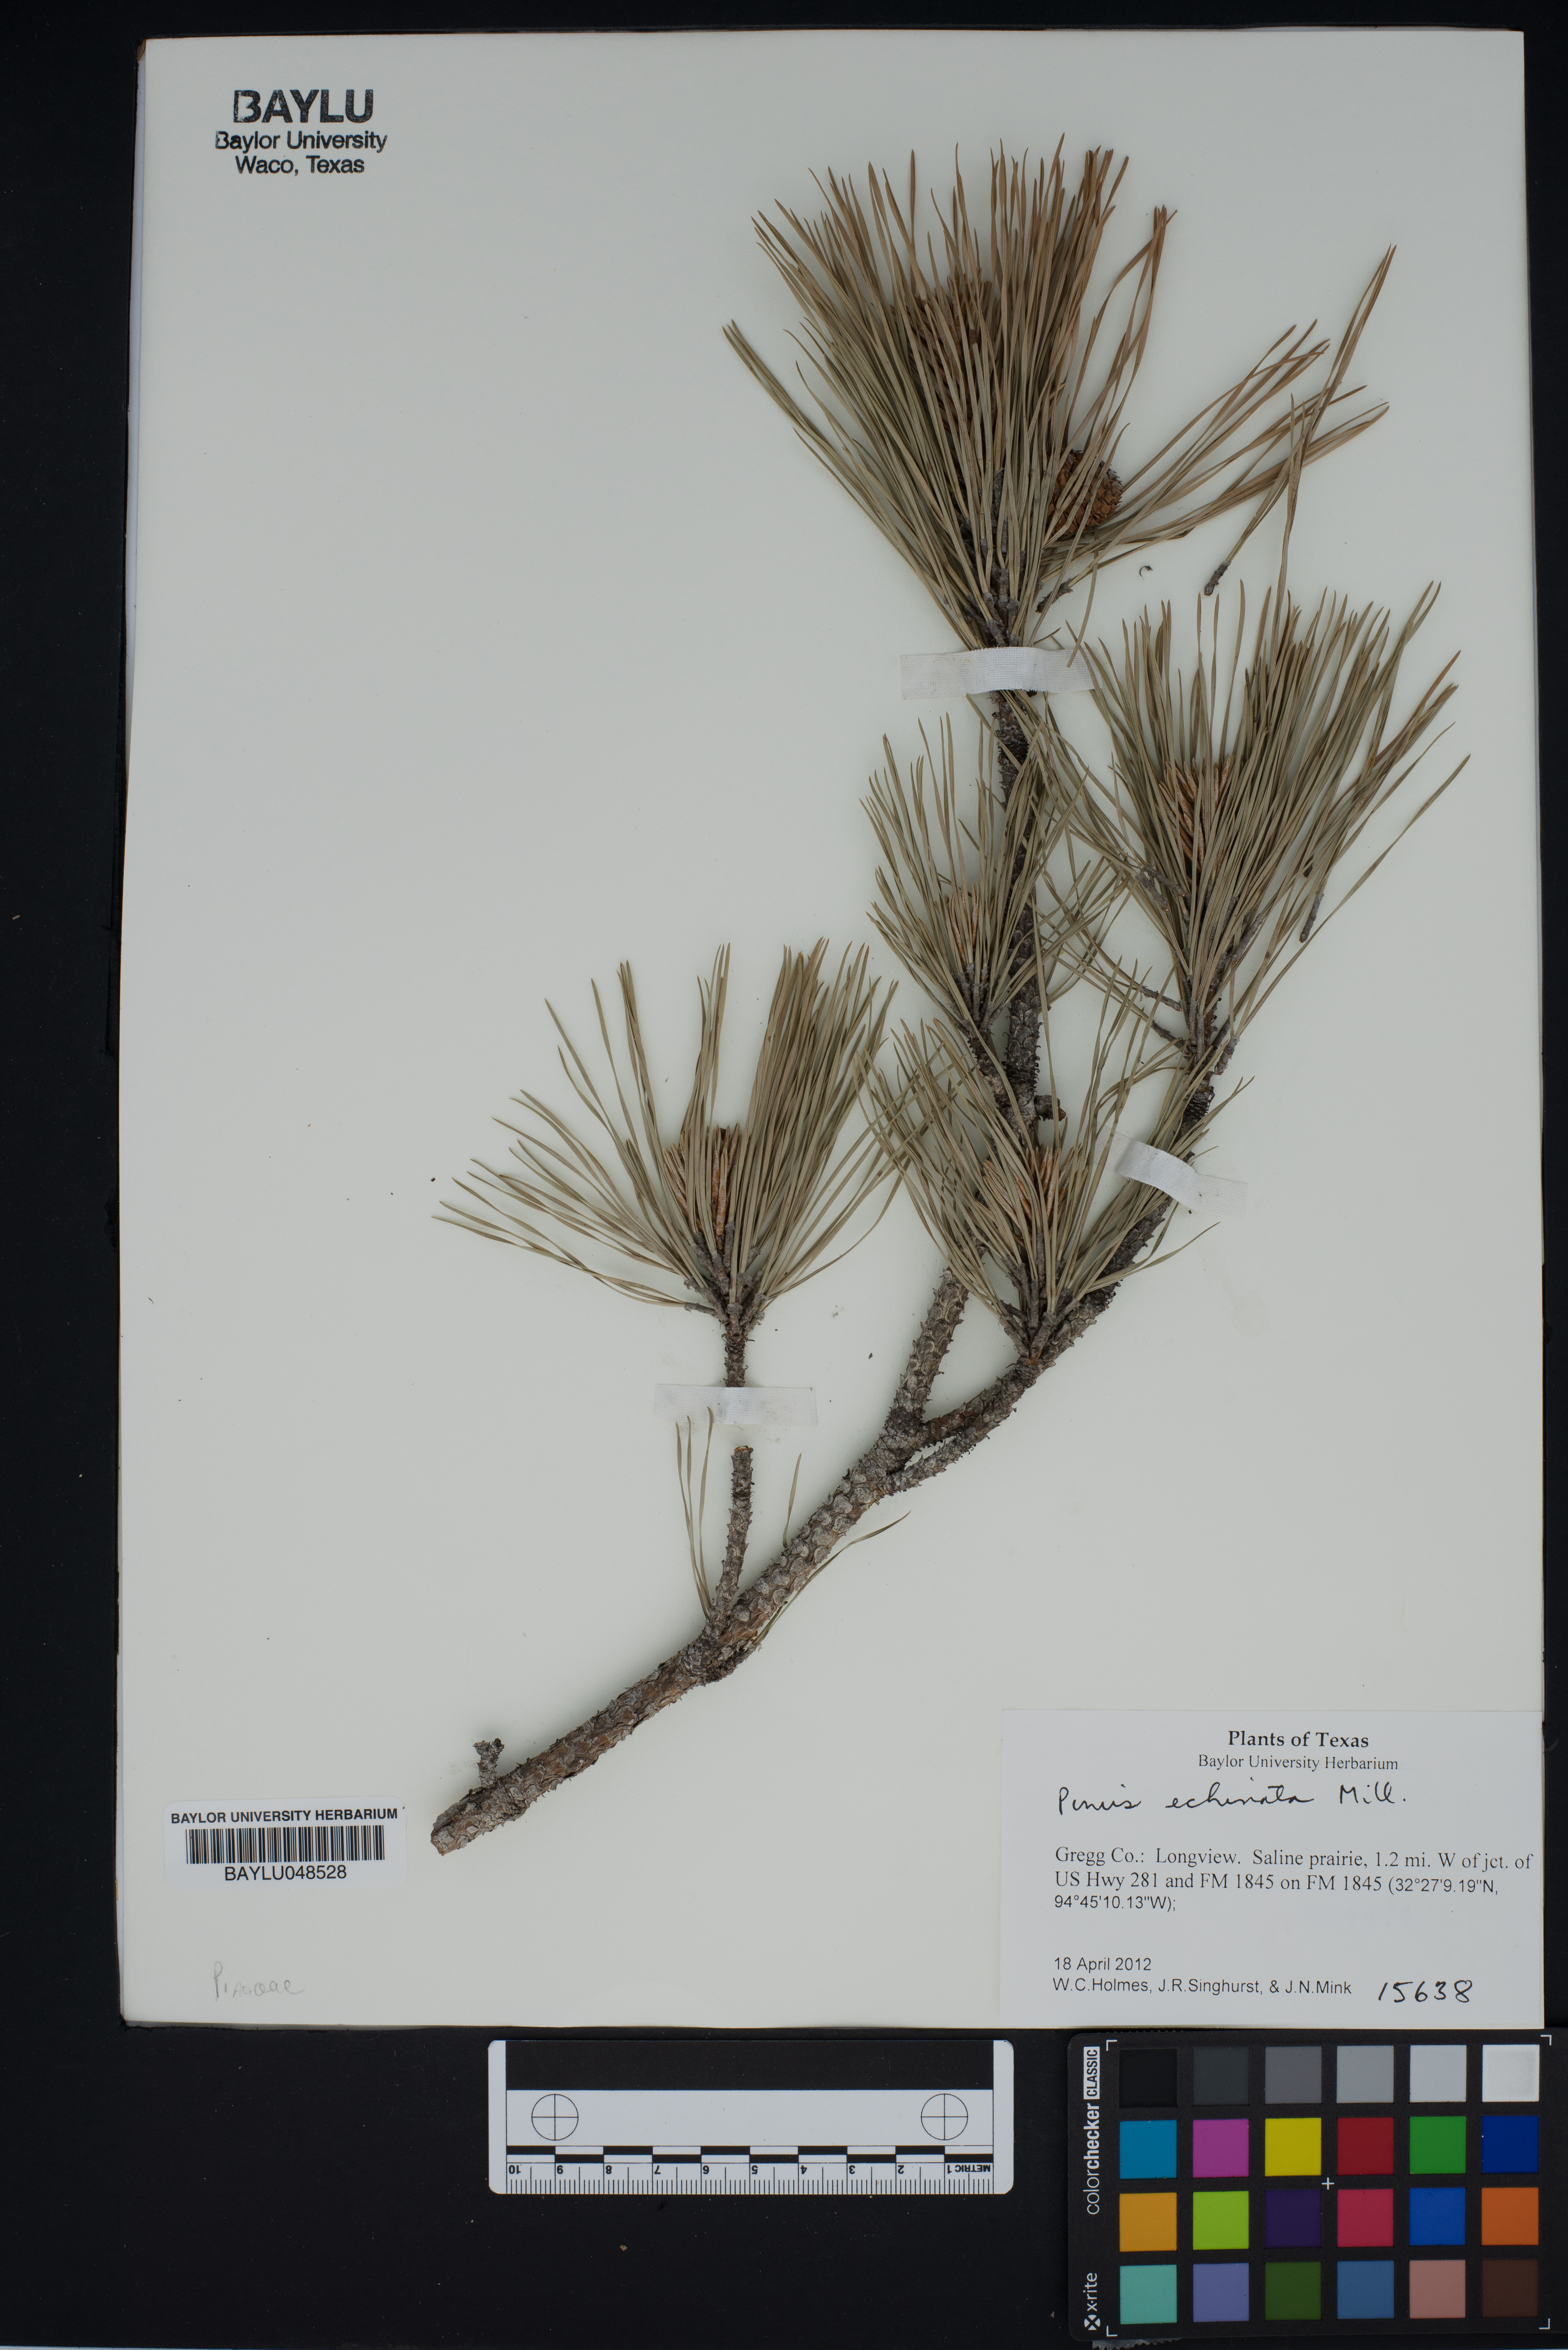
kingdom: Plantae
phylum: Tracheophyta
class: Pinopsida
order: Pinales
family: Pinaceae
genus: Pinus
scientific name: Pinus echinata
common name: Shortleaf pine
